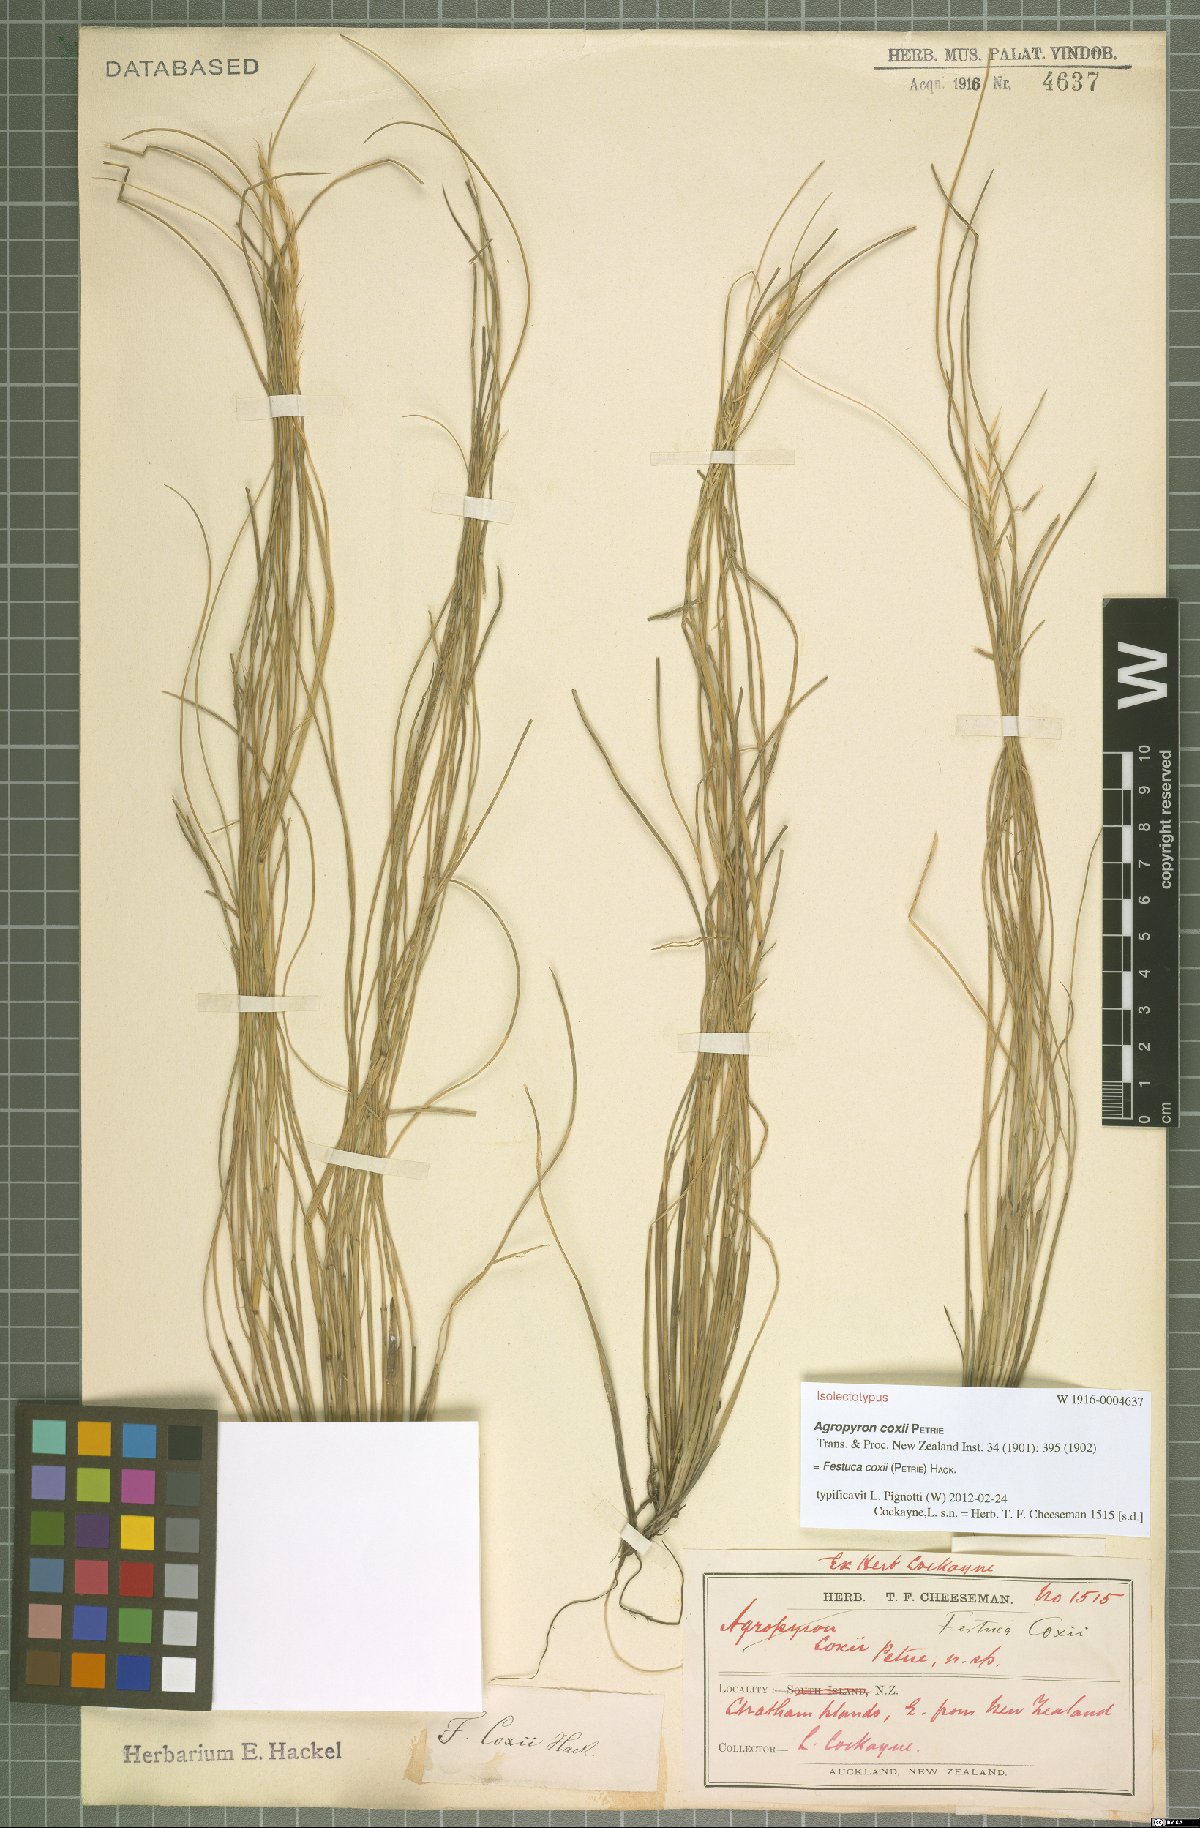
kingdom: Plantae
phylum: Tracheophyta
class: Liliopsida
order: Poales
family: Poaceae
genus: Festuca
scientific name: Festuca coxii
